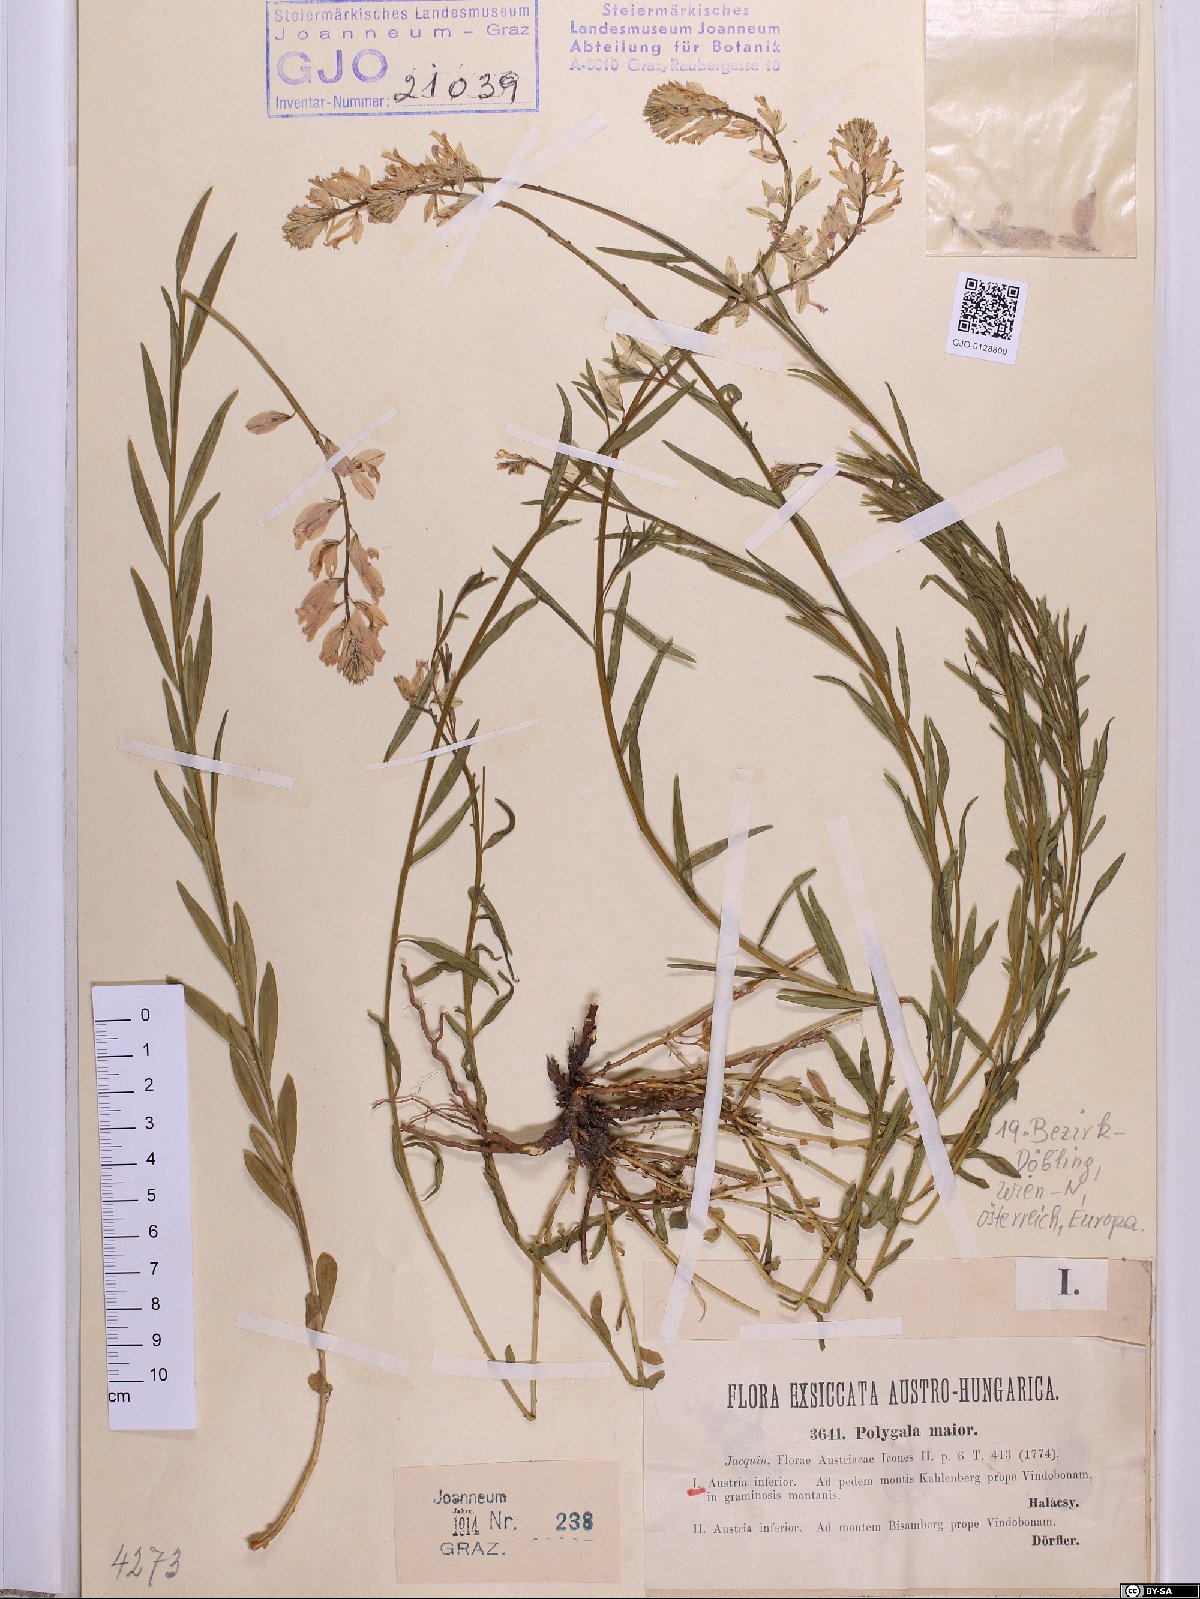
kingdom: Plantae
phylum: Tracheophyta
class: Magnoliopsida
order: Fabales
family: Polygalaceae
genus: Polygala
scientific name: Polygala major
